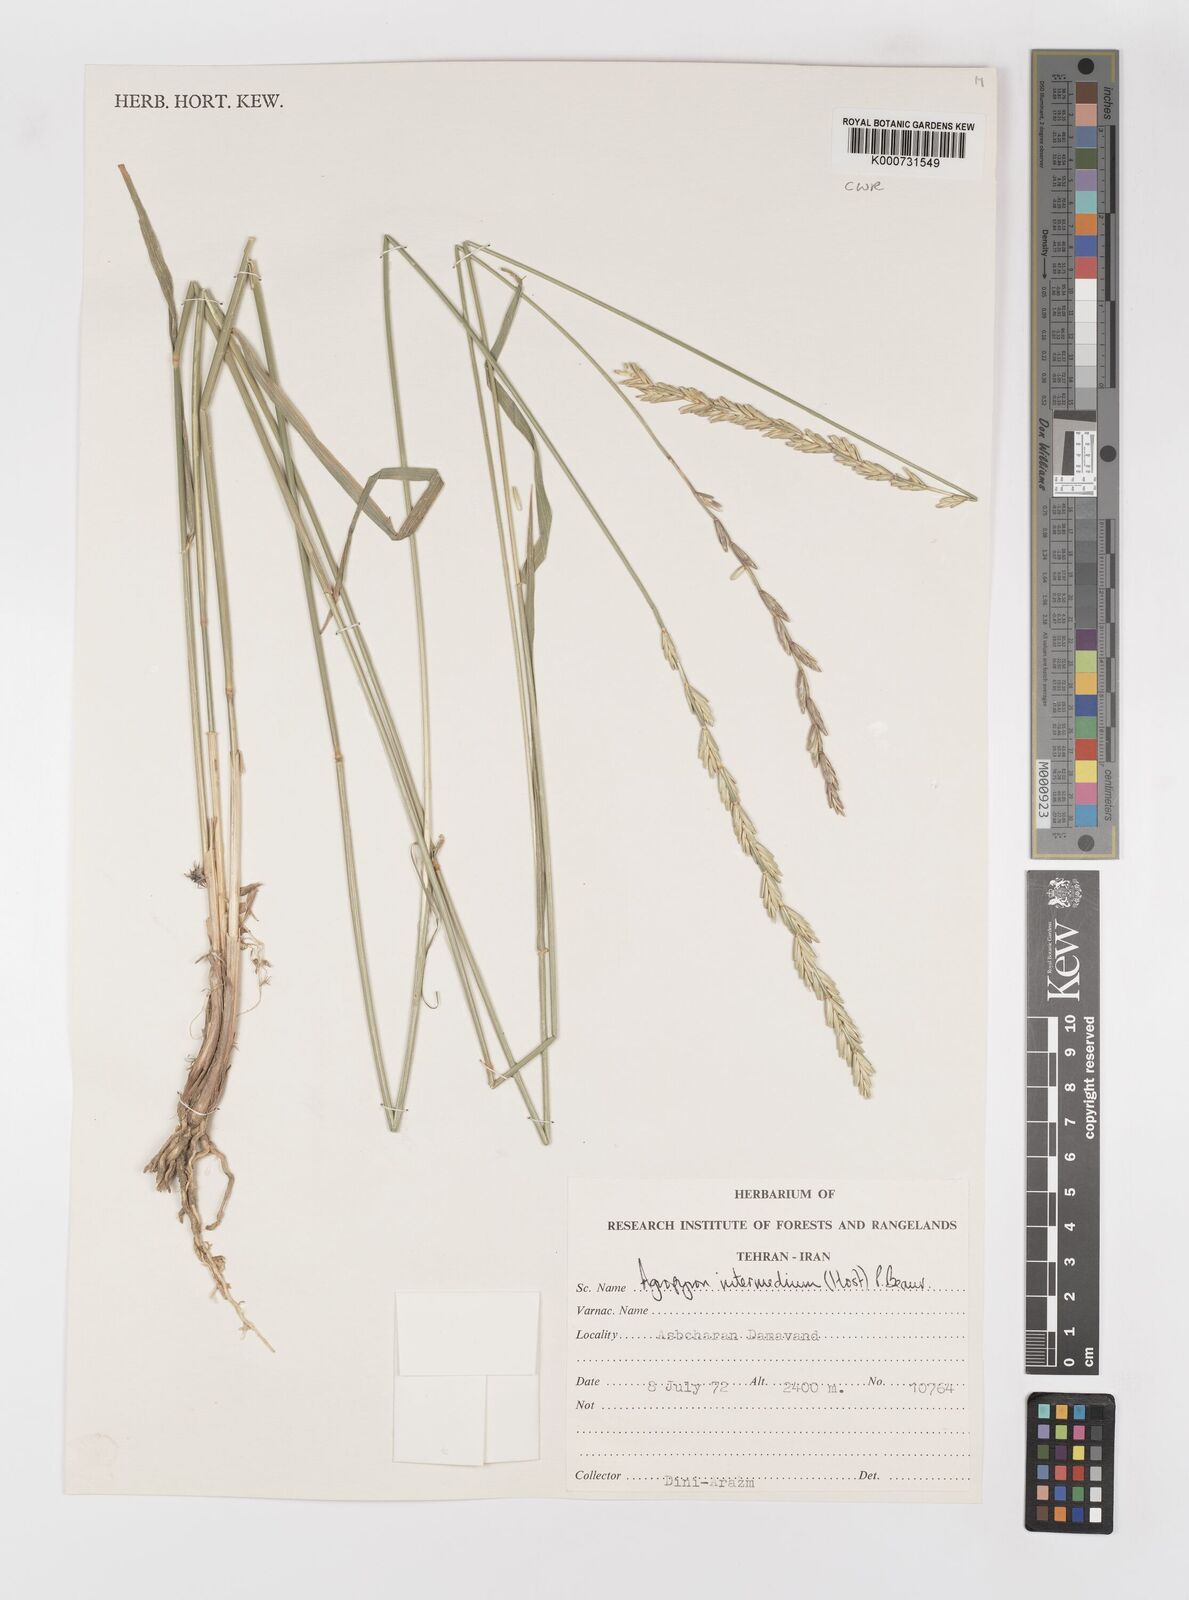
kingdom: Plantae
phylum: Tracheophyta
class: Liliopsida
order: Poales
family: Poaceae
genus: Thinopyrum
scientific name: Thinopyrum intermedium
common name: Intermediate wheatgrass
